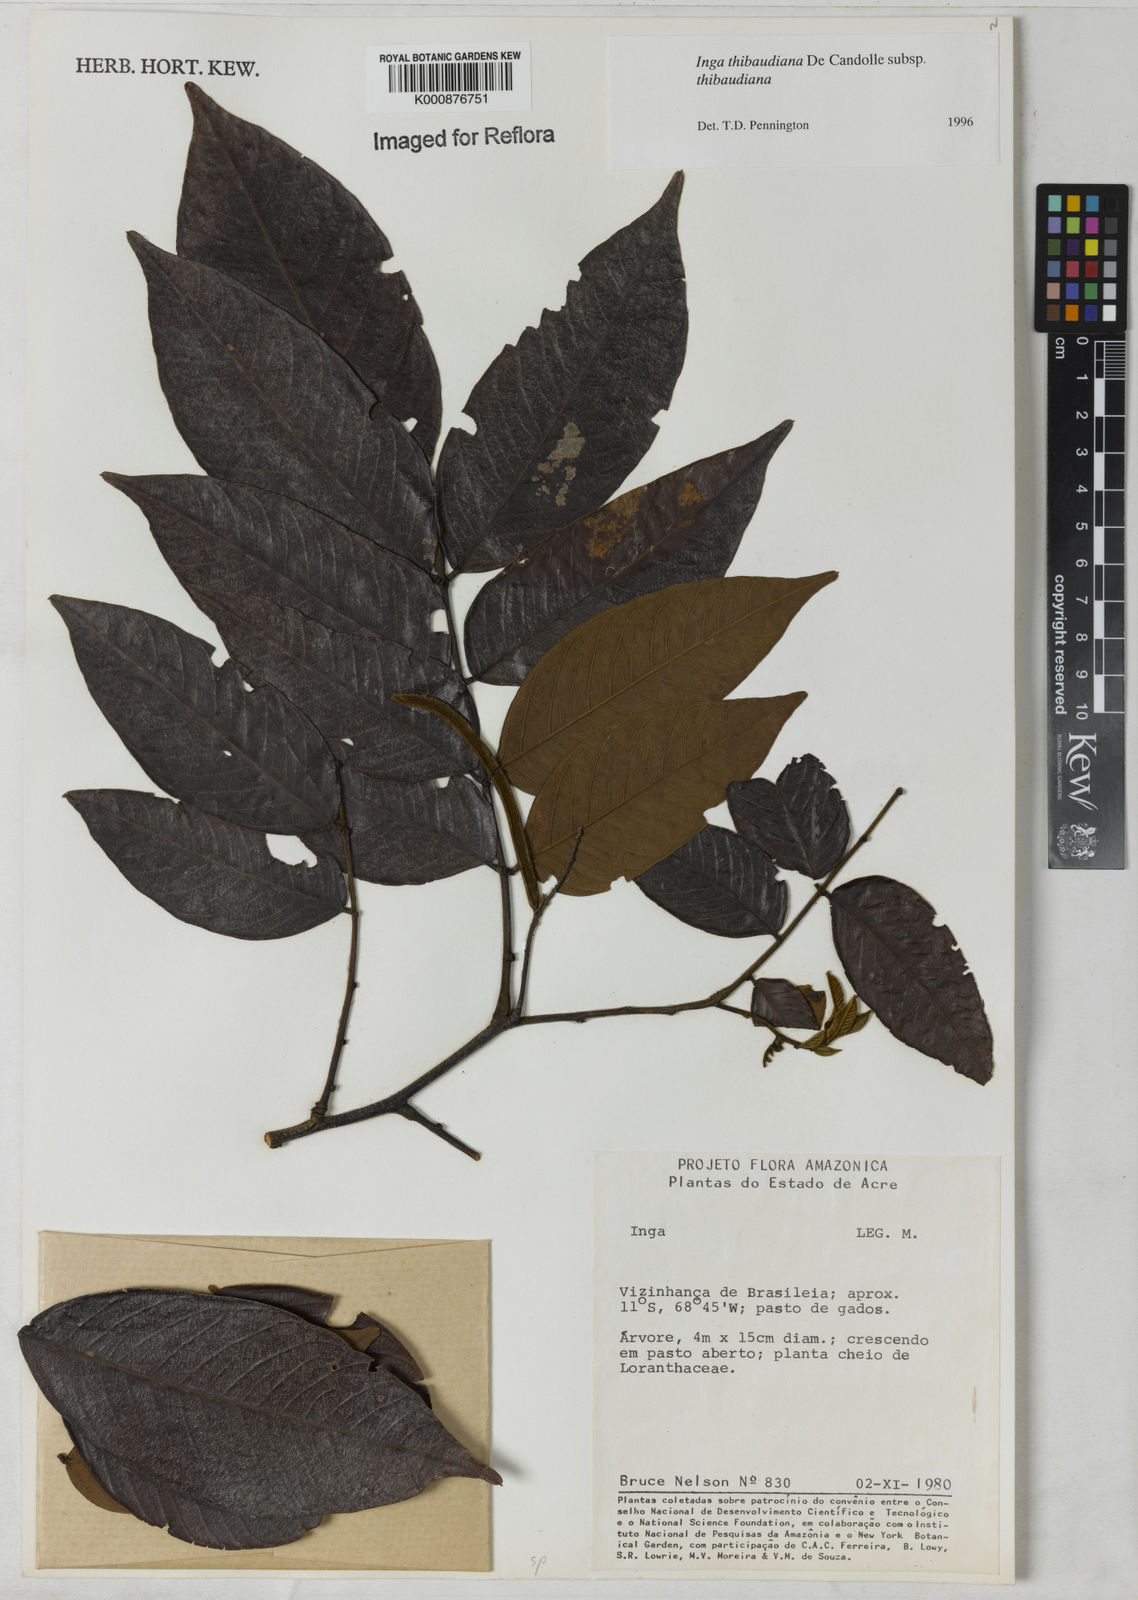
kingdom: Plantae
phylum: Tracheophyta
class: Magnoliopsida
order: Fabales
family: Fabaceae
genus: Inga
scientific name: Inga thibaudiana
